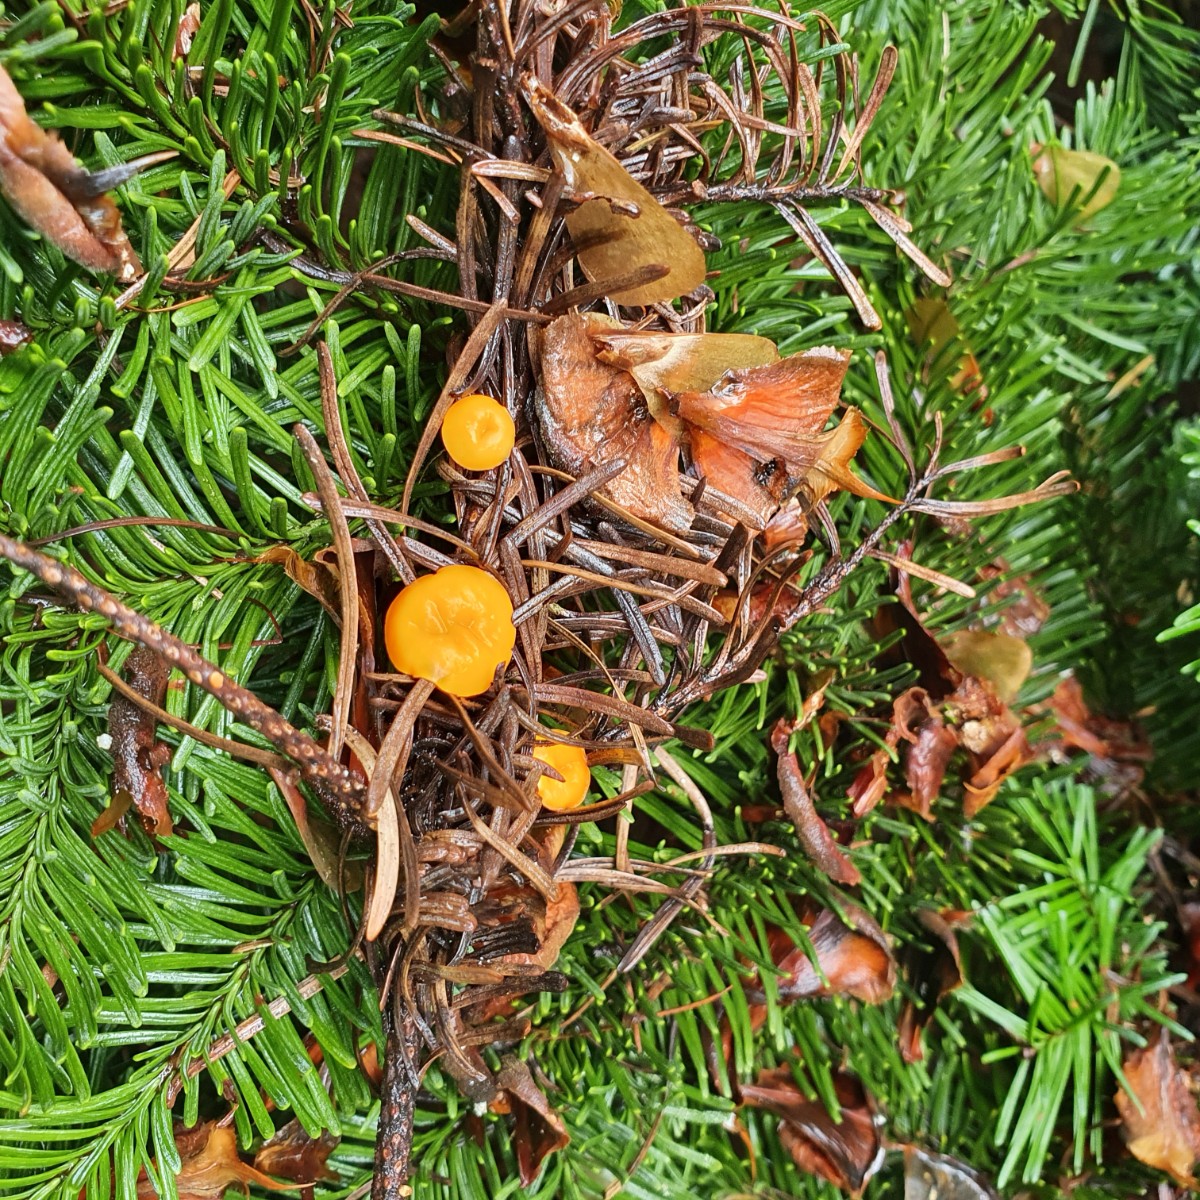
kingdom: Fungi
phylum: Ascomycota
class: Pezizomycetes
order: Pezizales
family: Sarcoscyphaceae
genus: Pithya
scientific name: Pithya vulgaris
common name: stor dukatbæger
